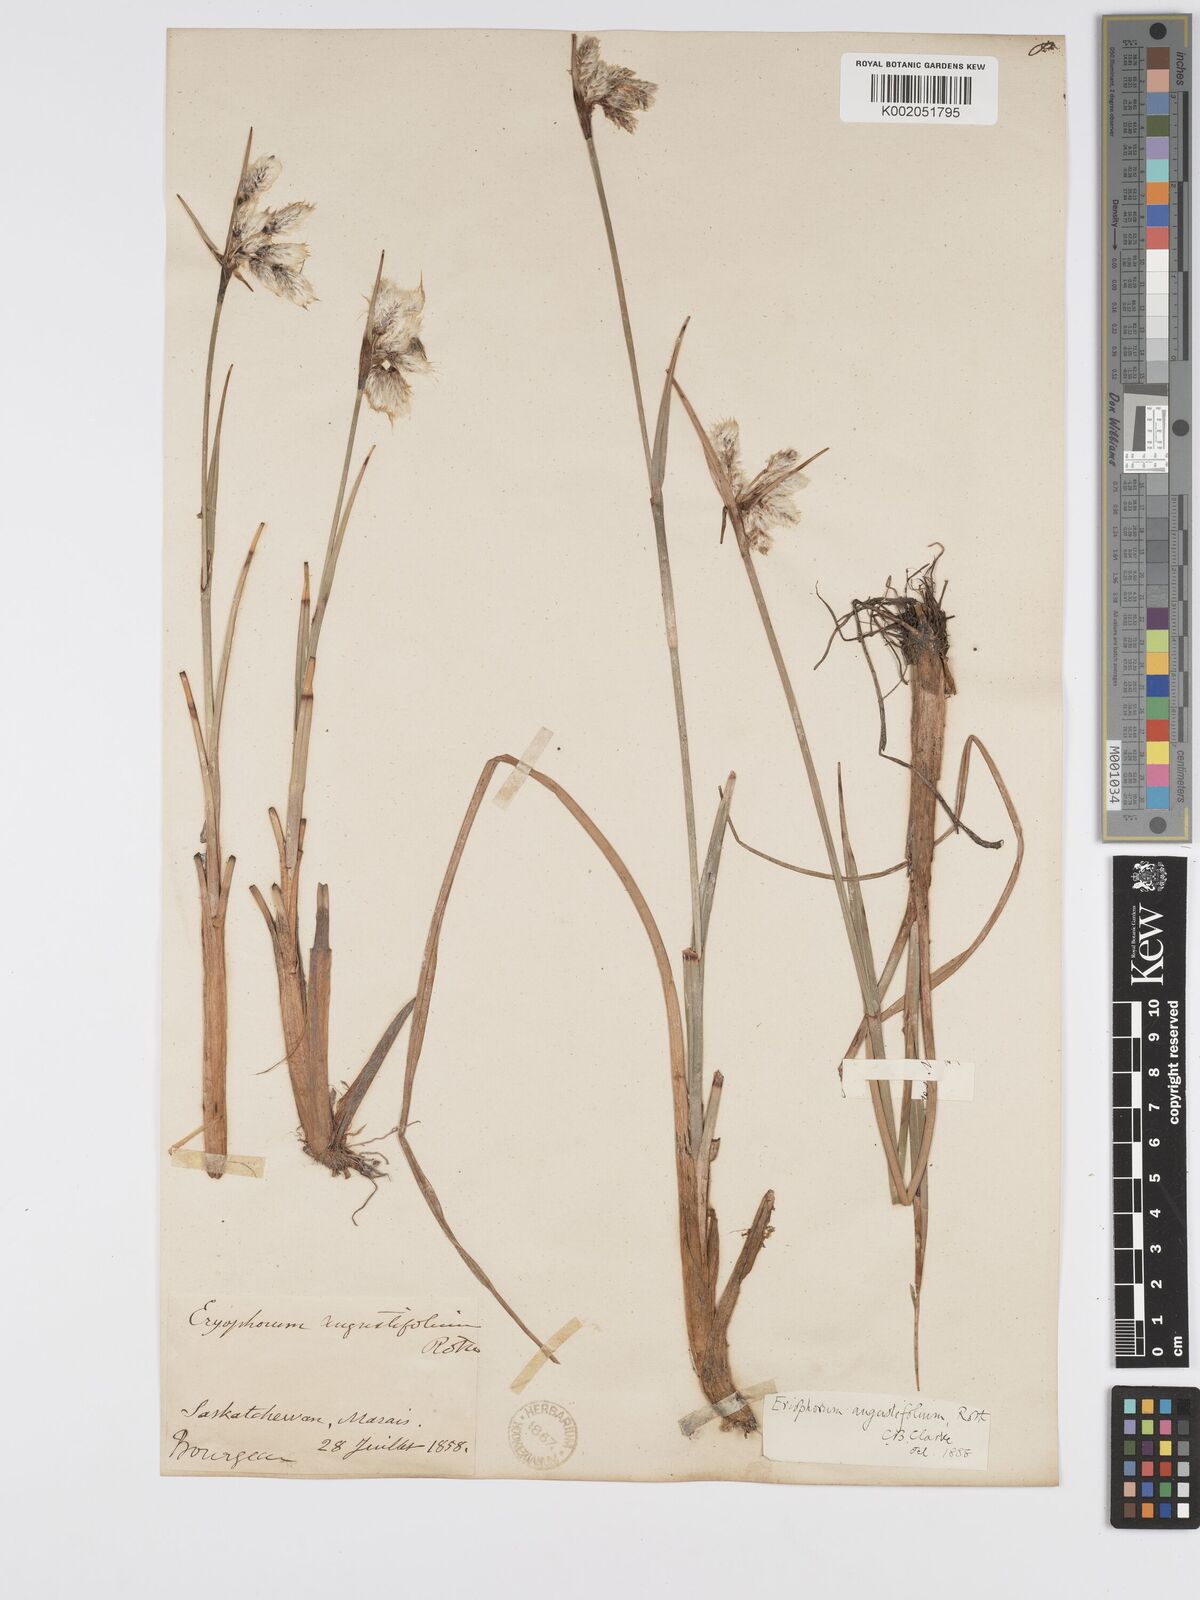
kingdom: Plantae
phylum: Tracheophyta
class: Liliopsida
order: Poales
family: Cyperaceae
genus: Eriophorum
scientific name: Eriophorum angustifolium
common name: Common cottongrass
